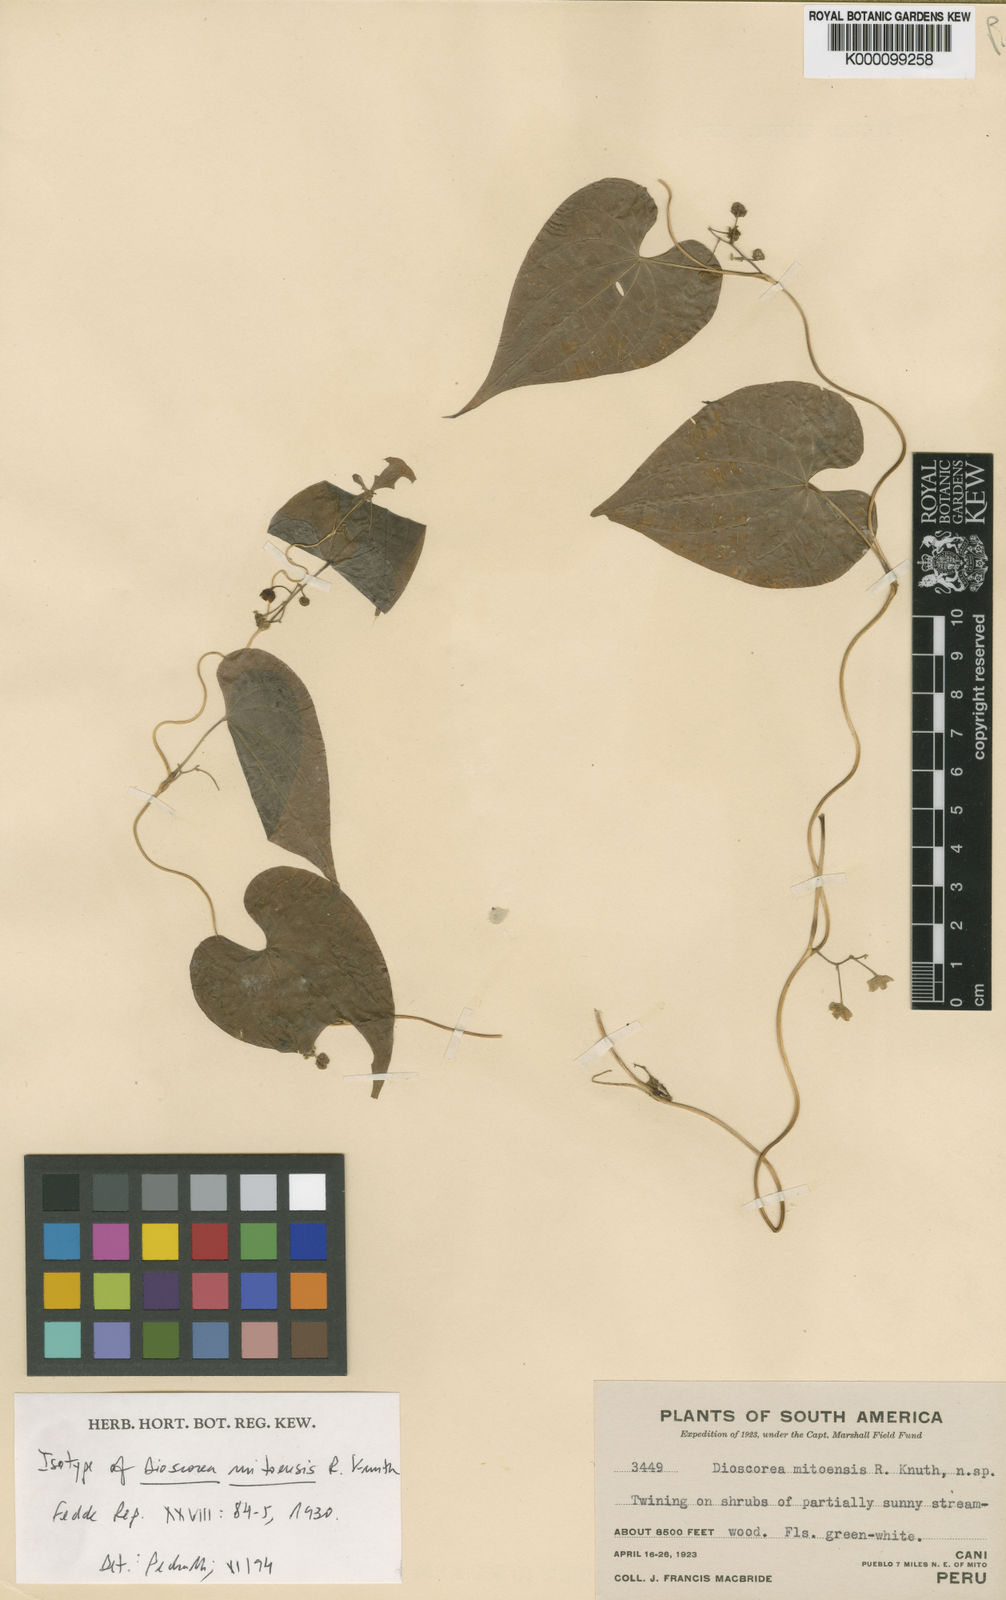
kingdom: Plantae
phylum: Tracheophyta
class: Liliopsida
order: Dioscoreales
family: Dioscoreaceae
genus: Dioscorea
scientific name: Dioscorea mitoensis
